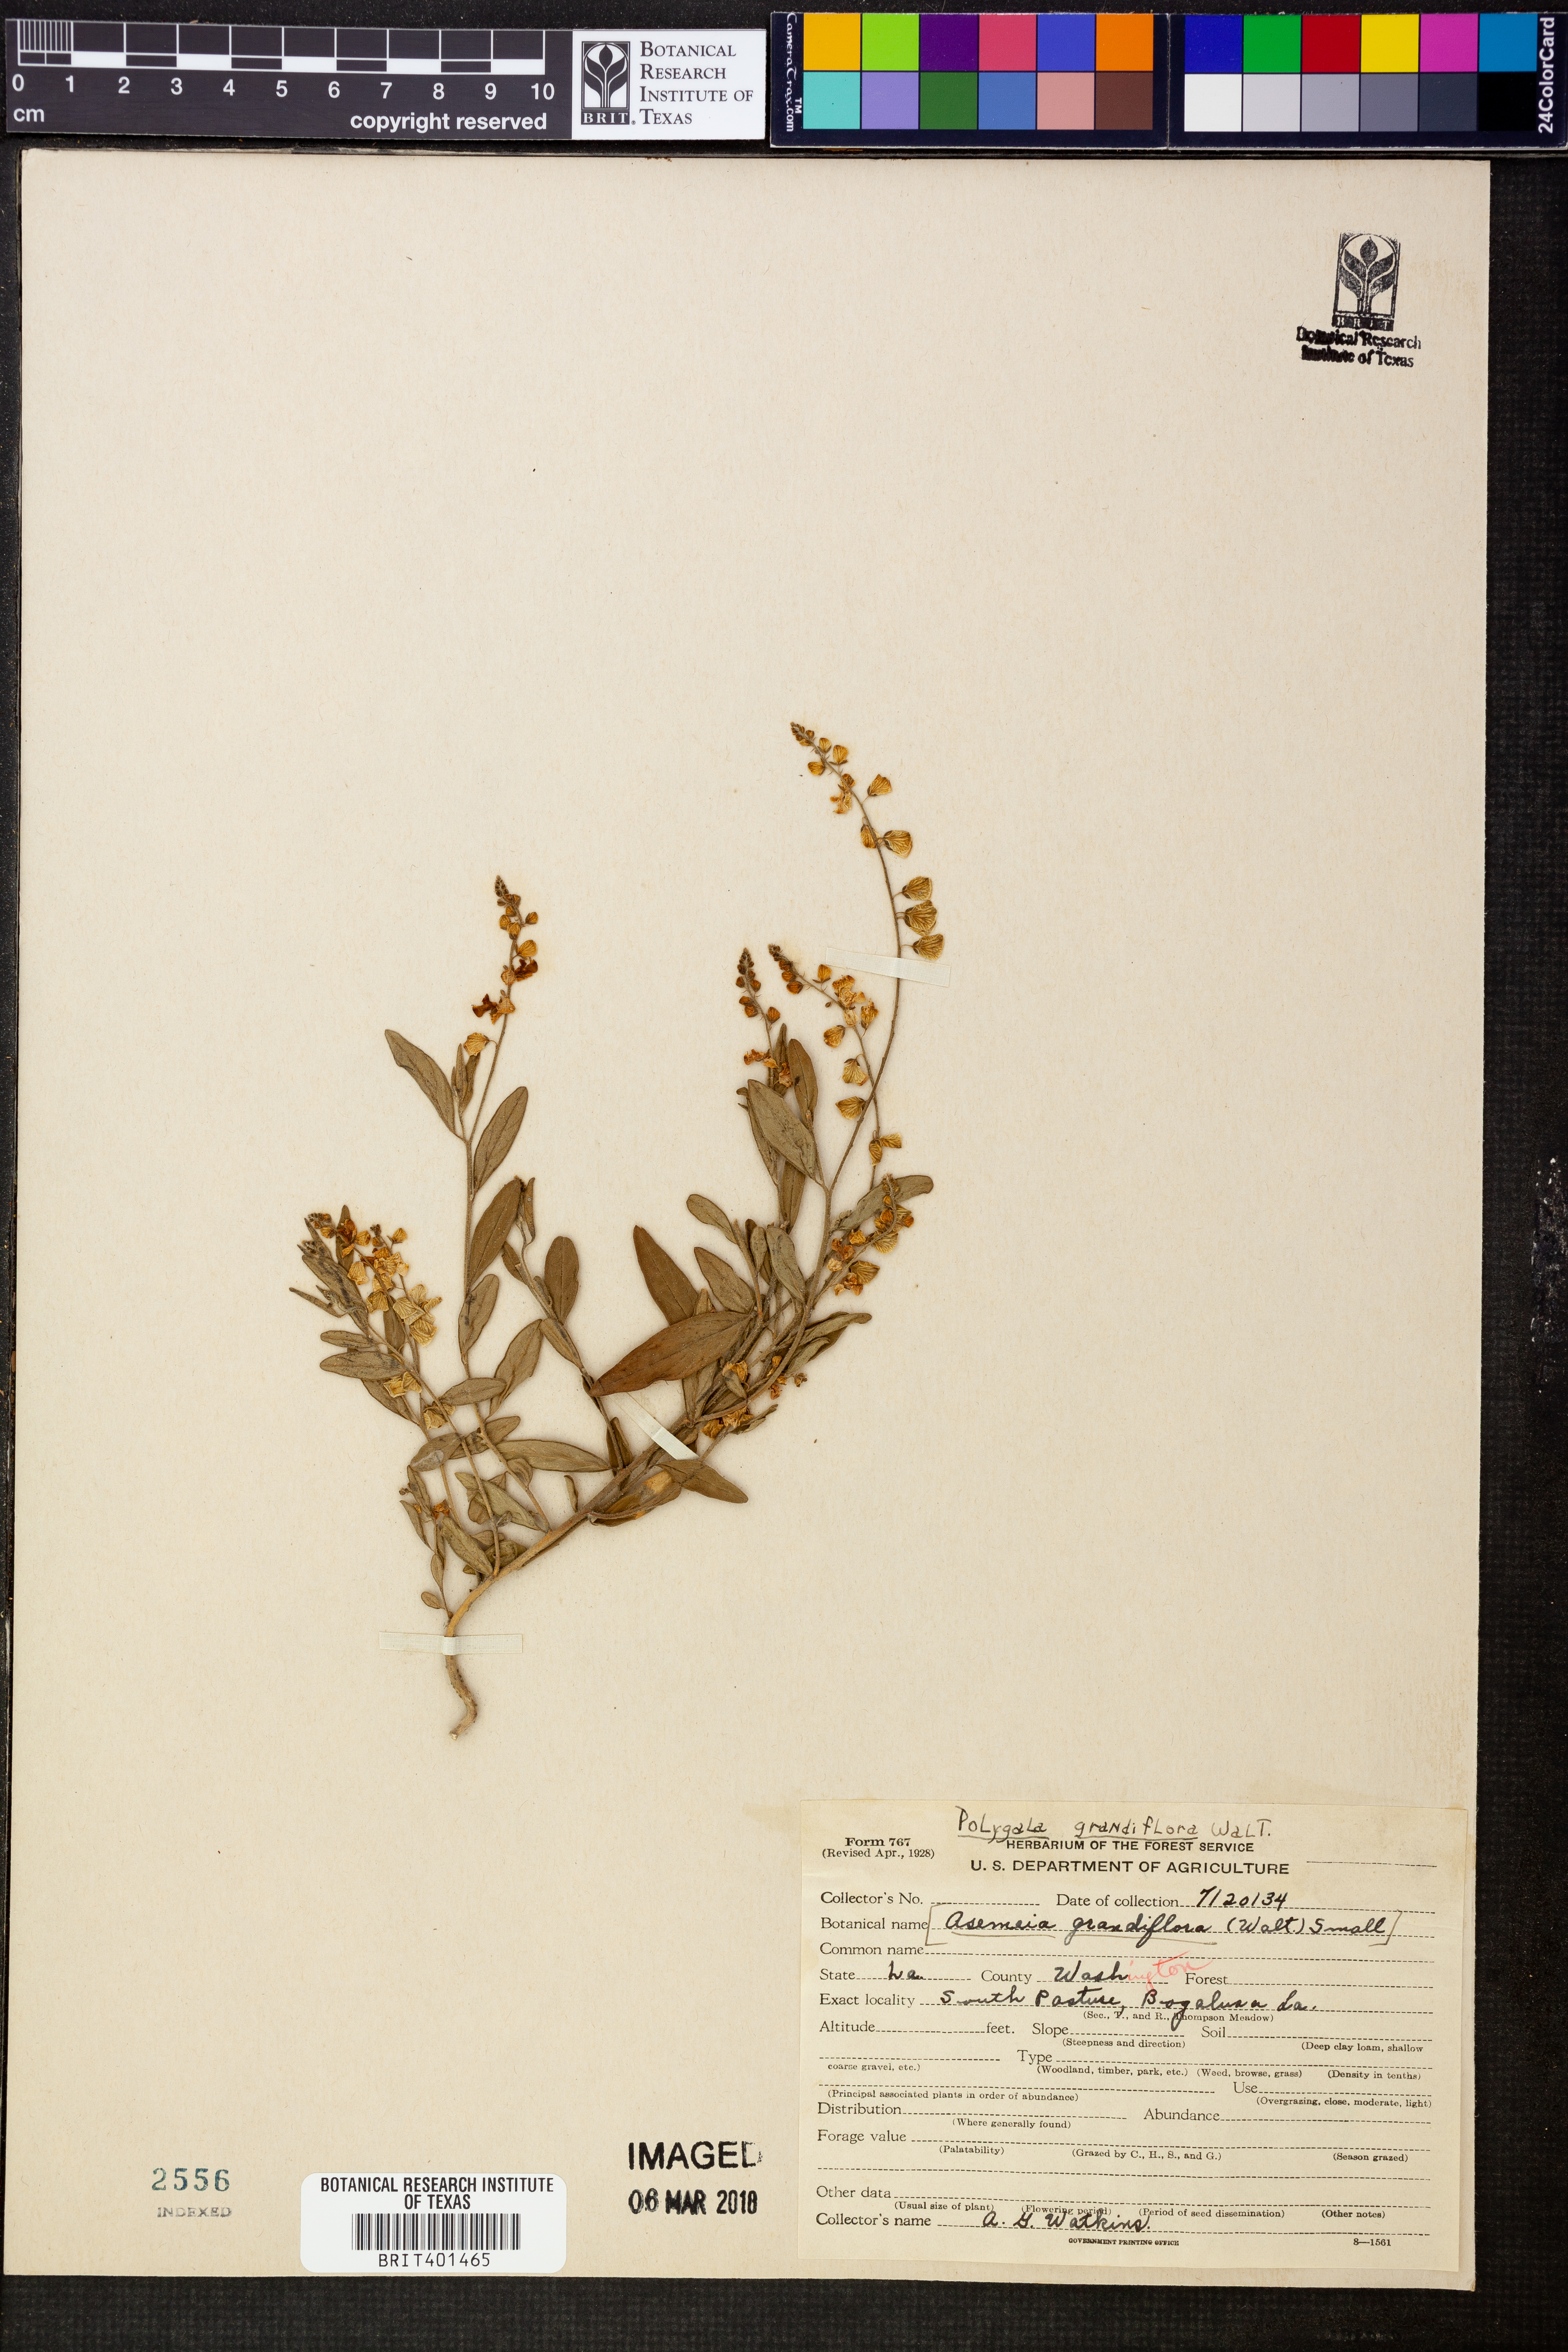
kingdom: Plantae
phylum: Tracheophyta
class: Magnoliopsida
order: Fabales
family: Polygalaceae
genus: Asemeia
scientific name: Asemeia grandiflora
